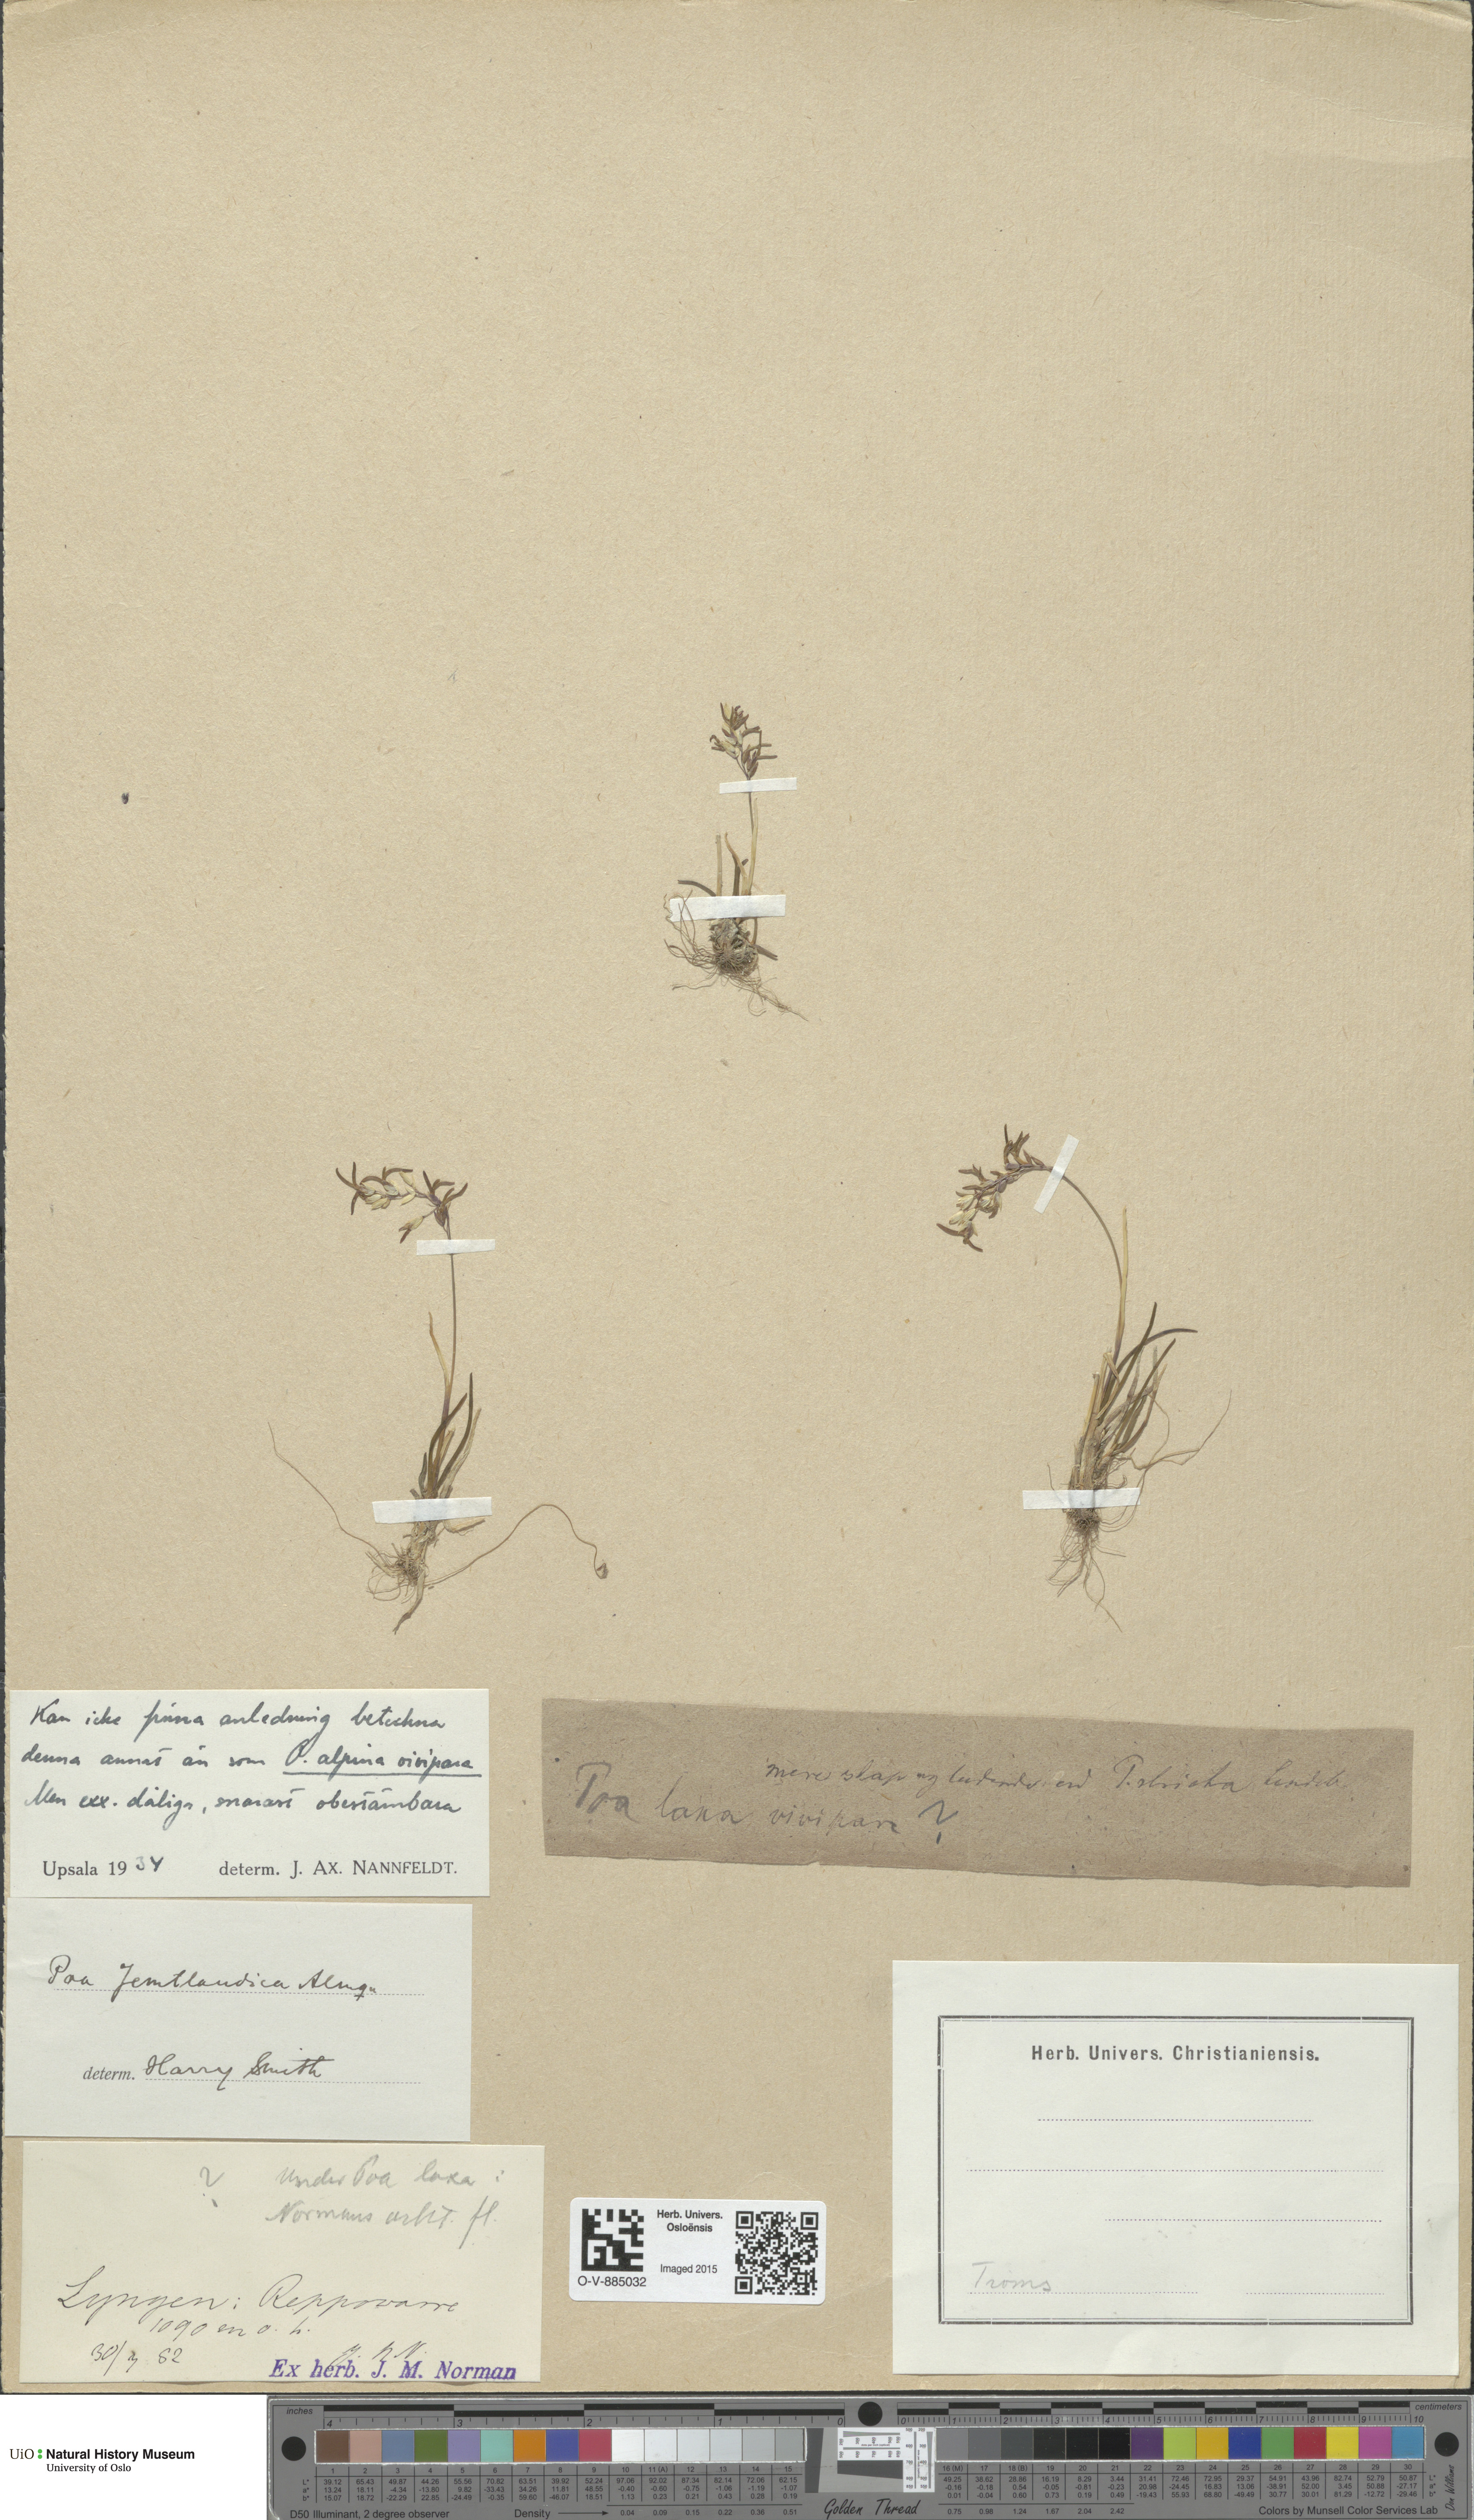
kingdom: Plantae
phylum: Tracheophyta
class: Liliopsida
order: Poales
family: Poaceae
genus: Poa
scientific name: Poa alpina
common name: Alpine bluegrass
